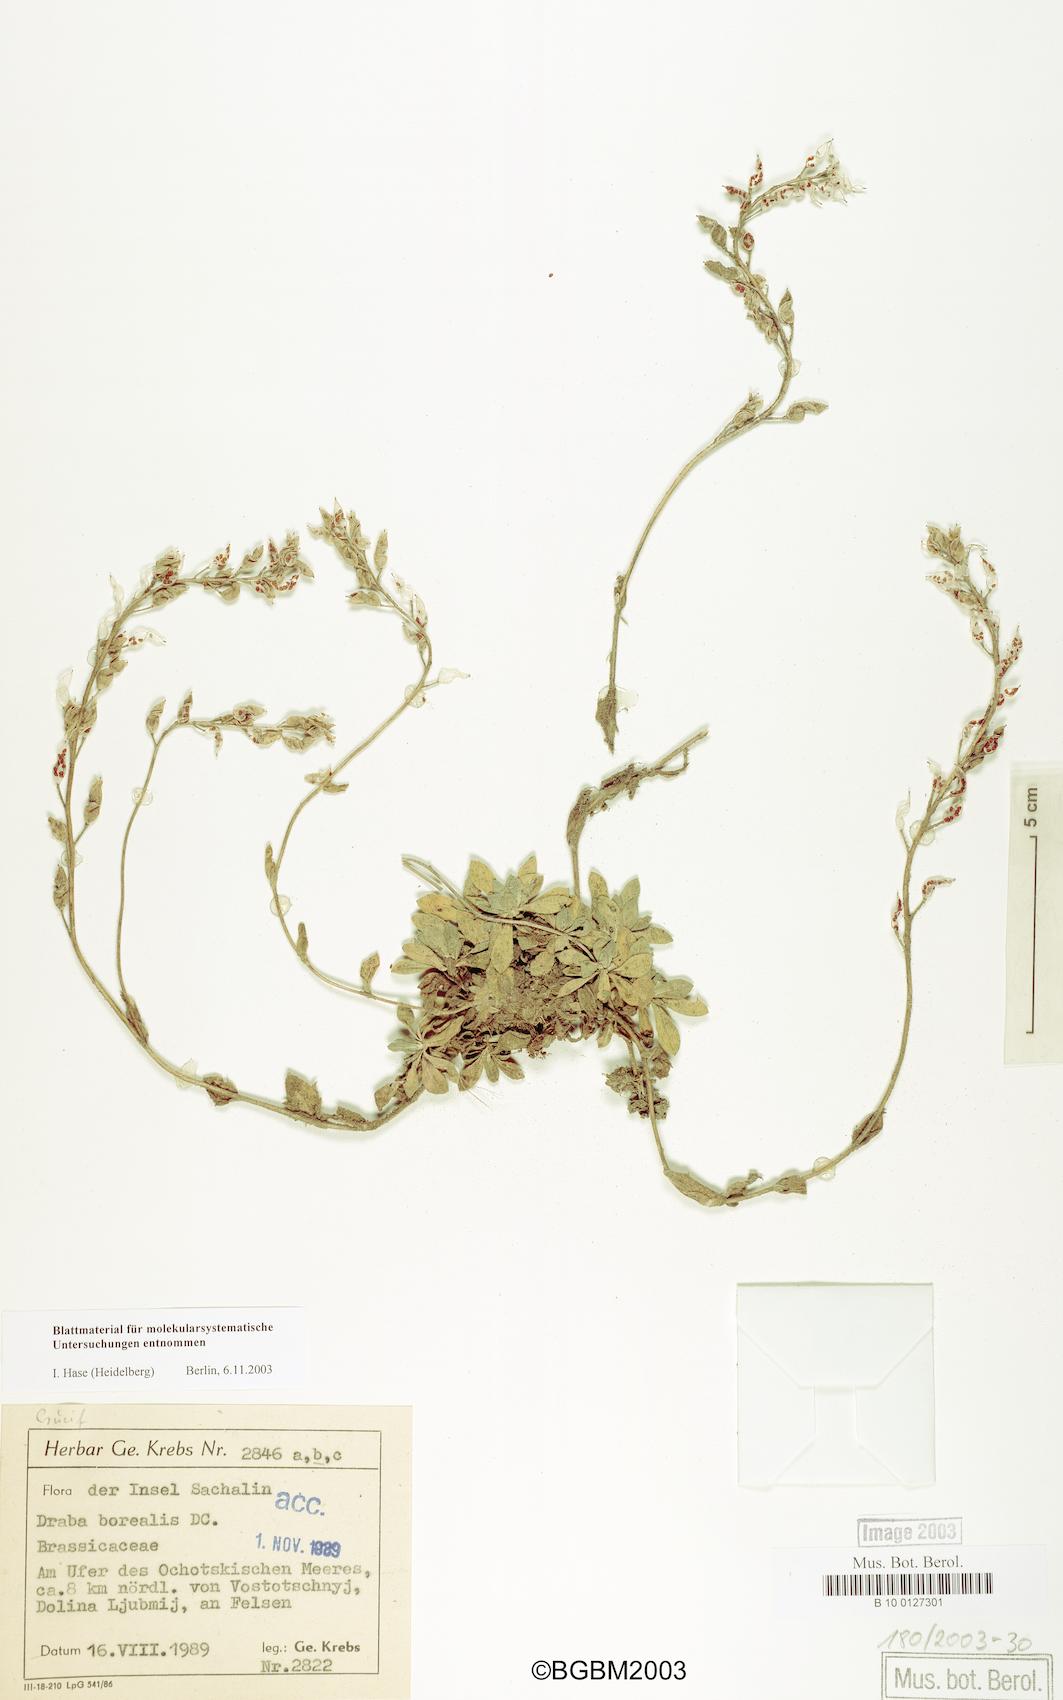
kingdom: Plantae
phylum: Tracheophyta
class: Magnoliopsida
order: Brassicales
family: Brassicaceae
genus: Draba
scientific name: Draba borealis
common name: Boreal draba
